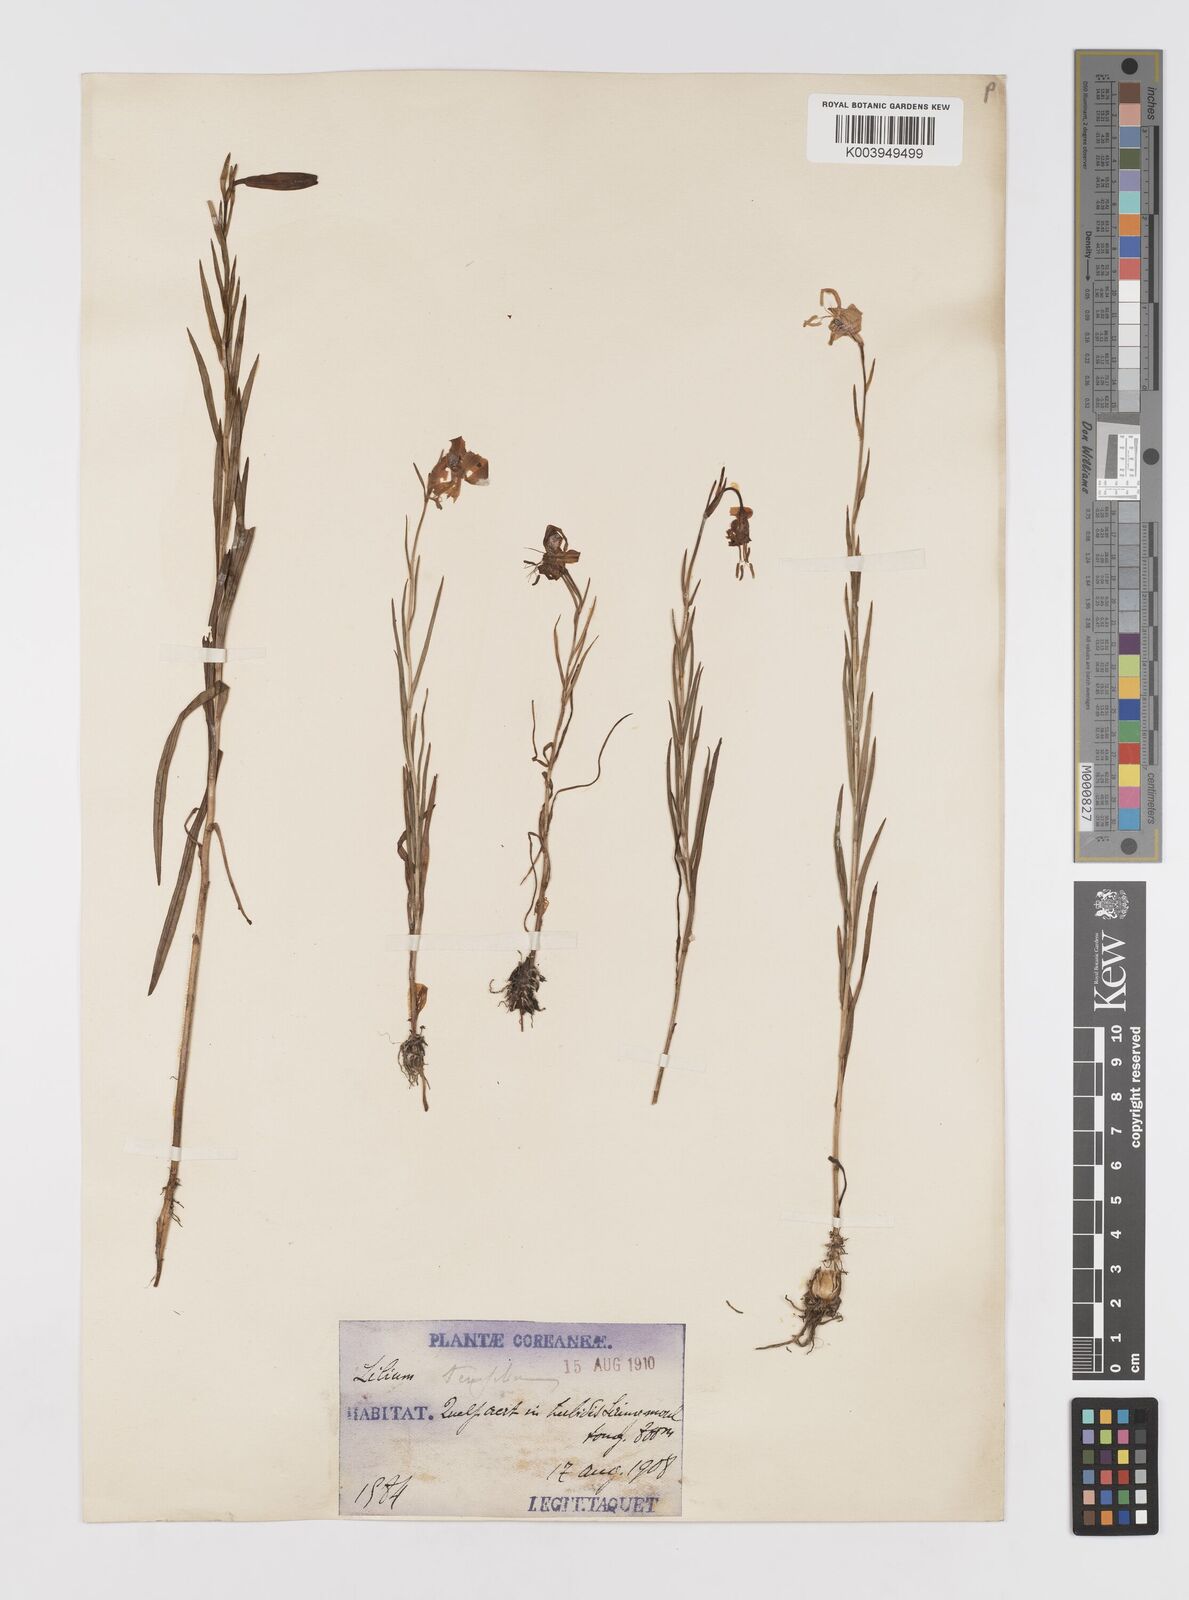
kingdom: Plantae
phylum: Tracheophyta
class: Liliopsida
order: Liliales
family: Liliaceae
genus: Lilium
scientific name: Lilium callosum
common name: Slim-stem lily
